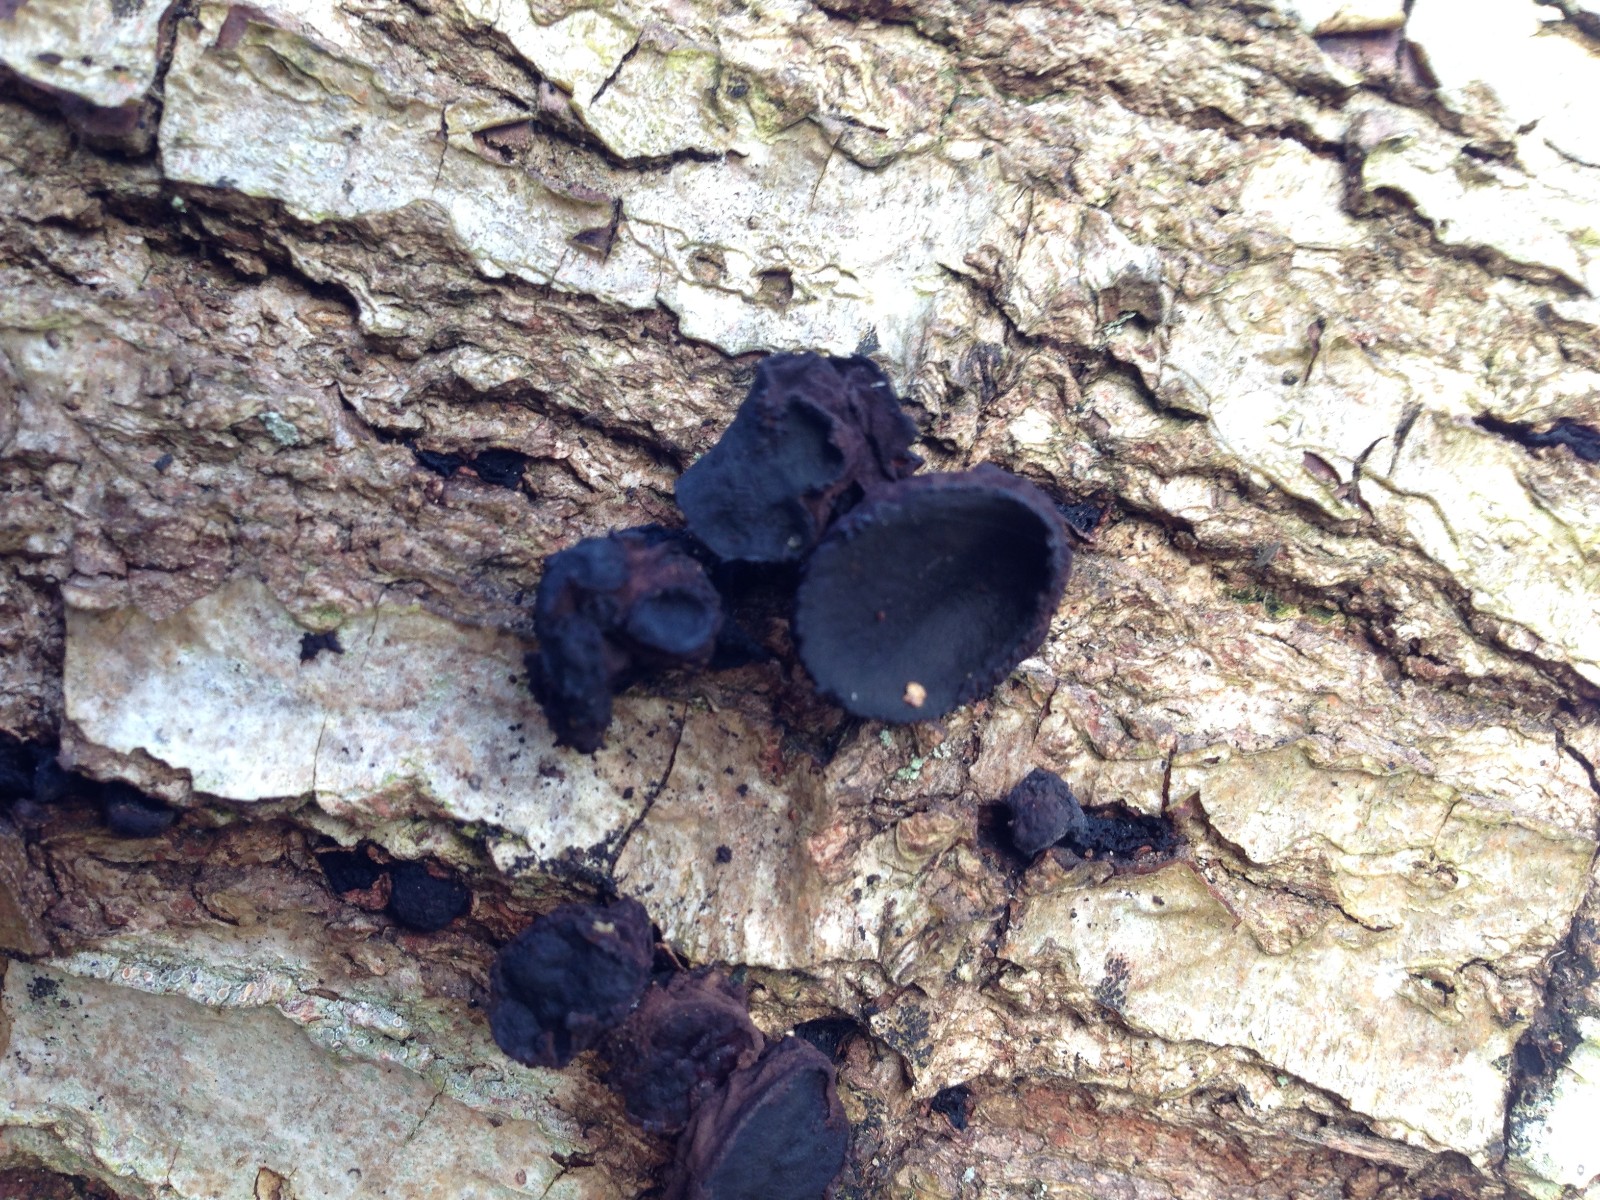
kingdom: Fungi
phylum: Ascomycota
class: Leotiomycetes
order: Phacidiales
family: Phacidiaceae
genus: Bulgaria
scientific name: Bulgaria inquinans
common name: afsmittende topsvamp
